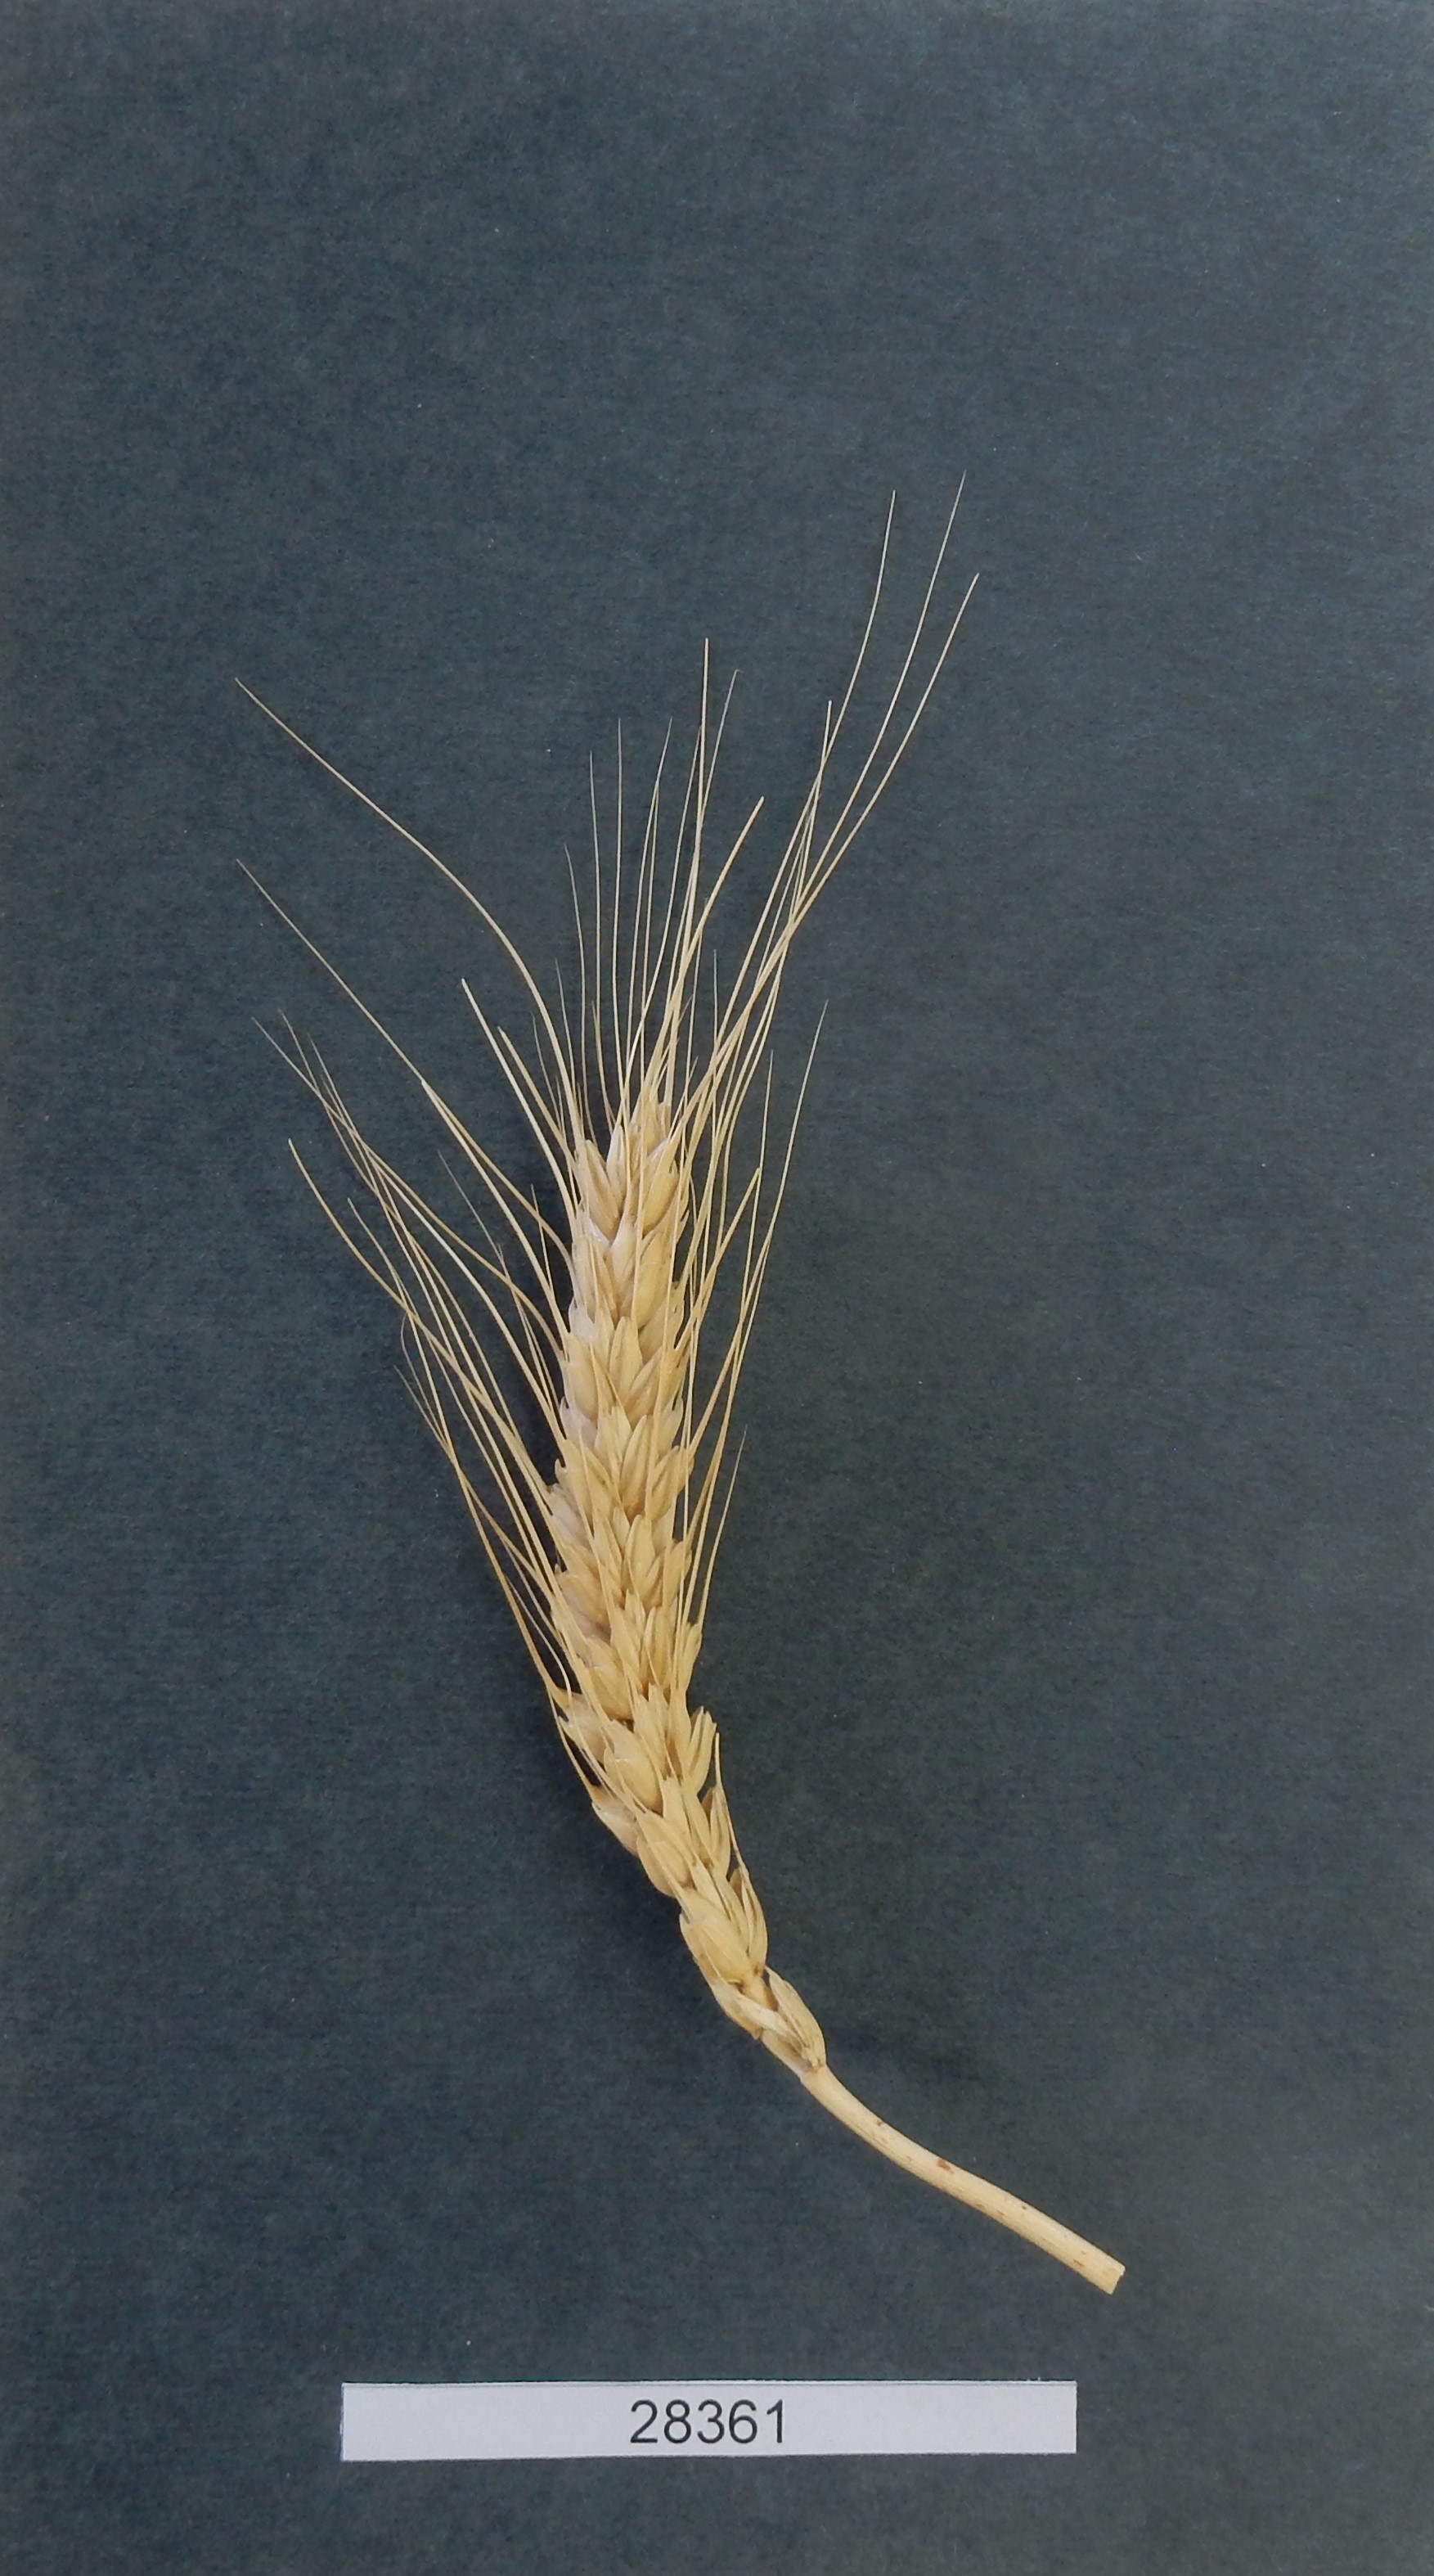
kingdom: Plantae
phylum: Tracheophyta
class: Liliopsida
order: Poales
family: Poaceae
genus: Triticum
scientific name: Triticum aestivum
